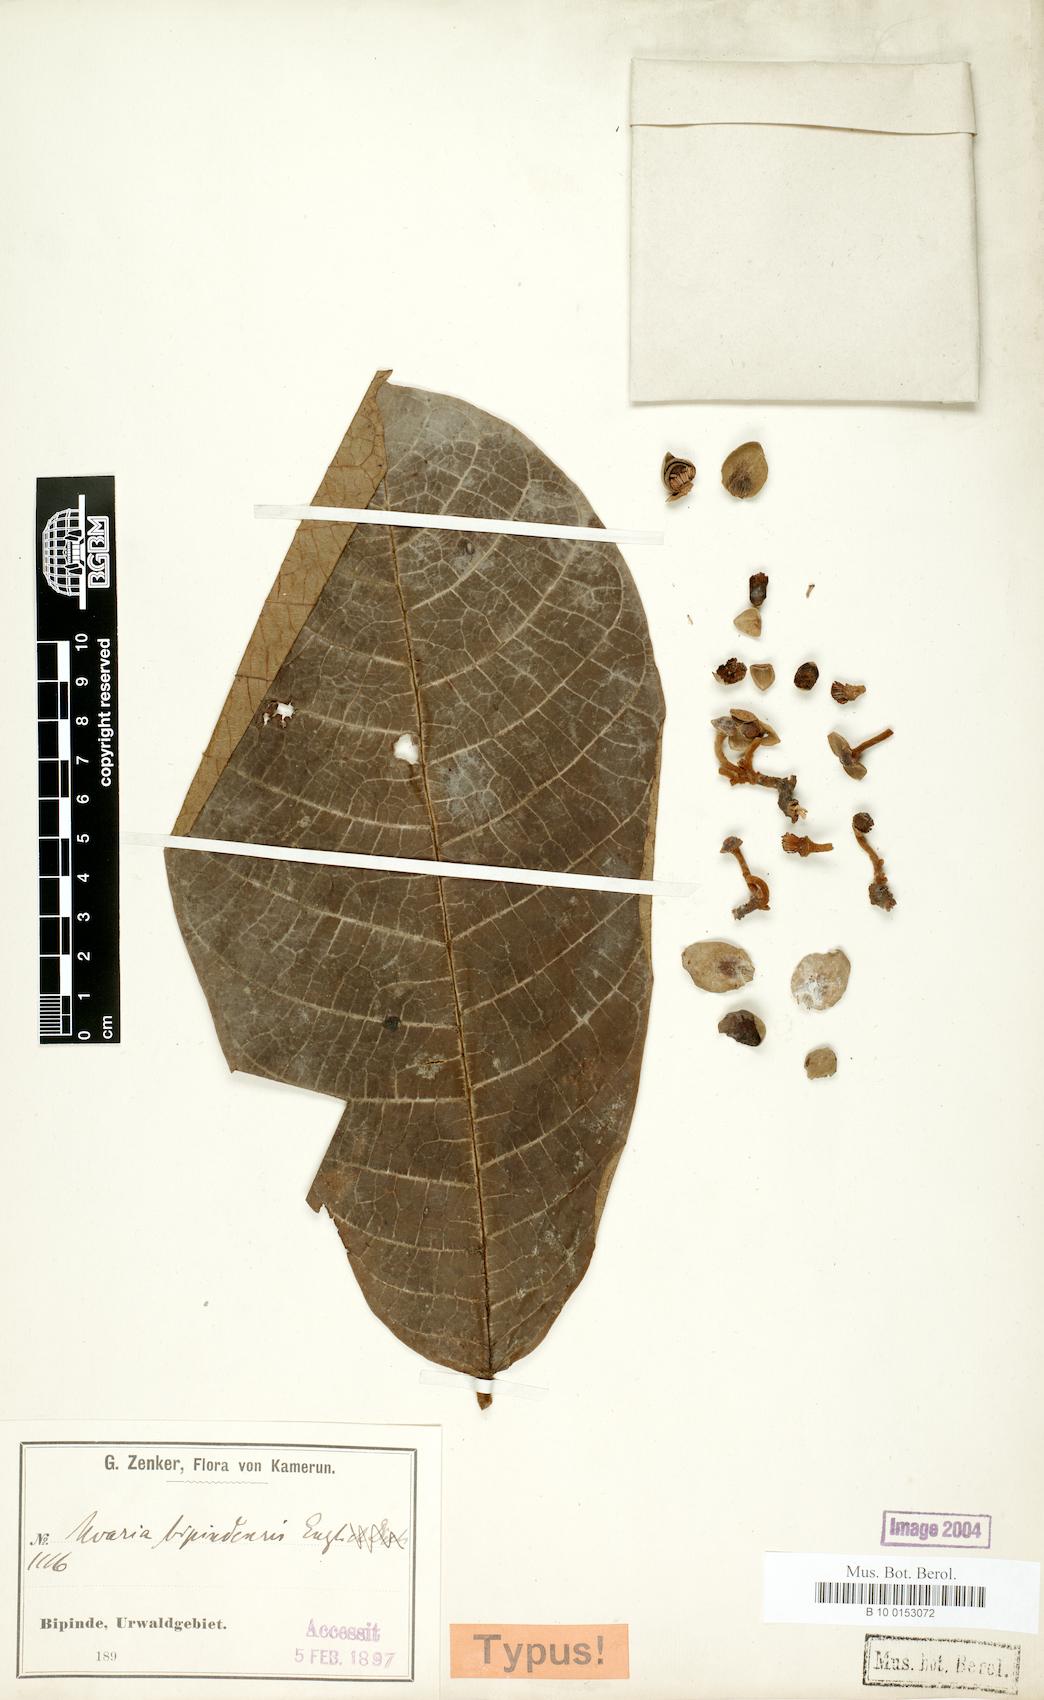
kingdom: Plantae
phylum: Tracheophyta
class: Magnoliopsida
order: Magnoliales
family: Annonaceae
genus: Uvaria
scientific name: Uvaria bipindensis
